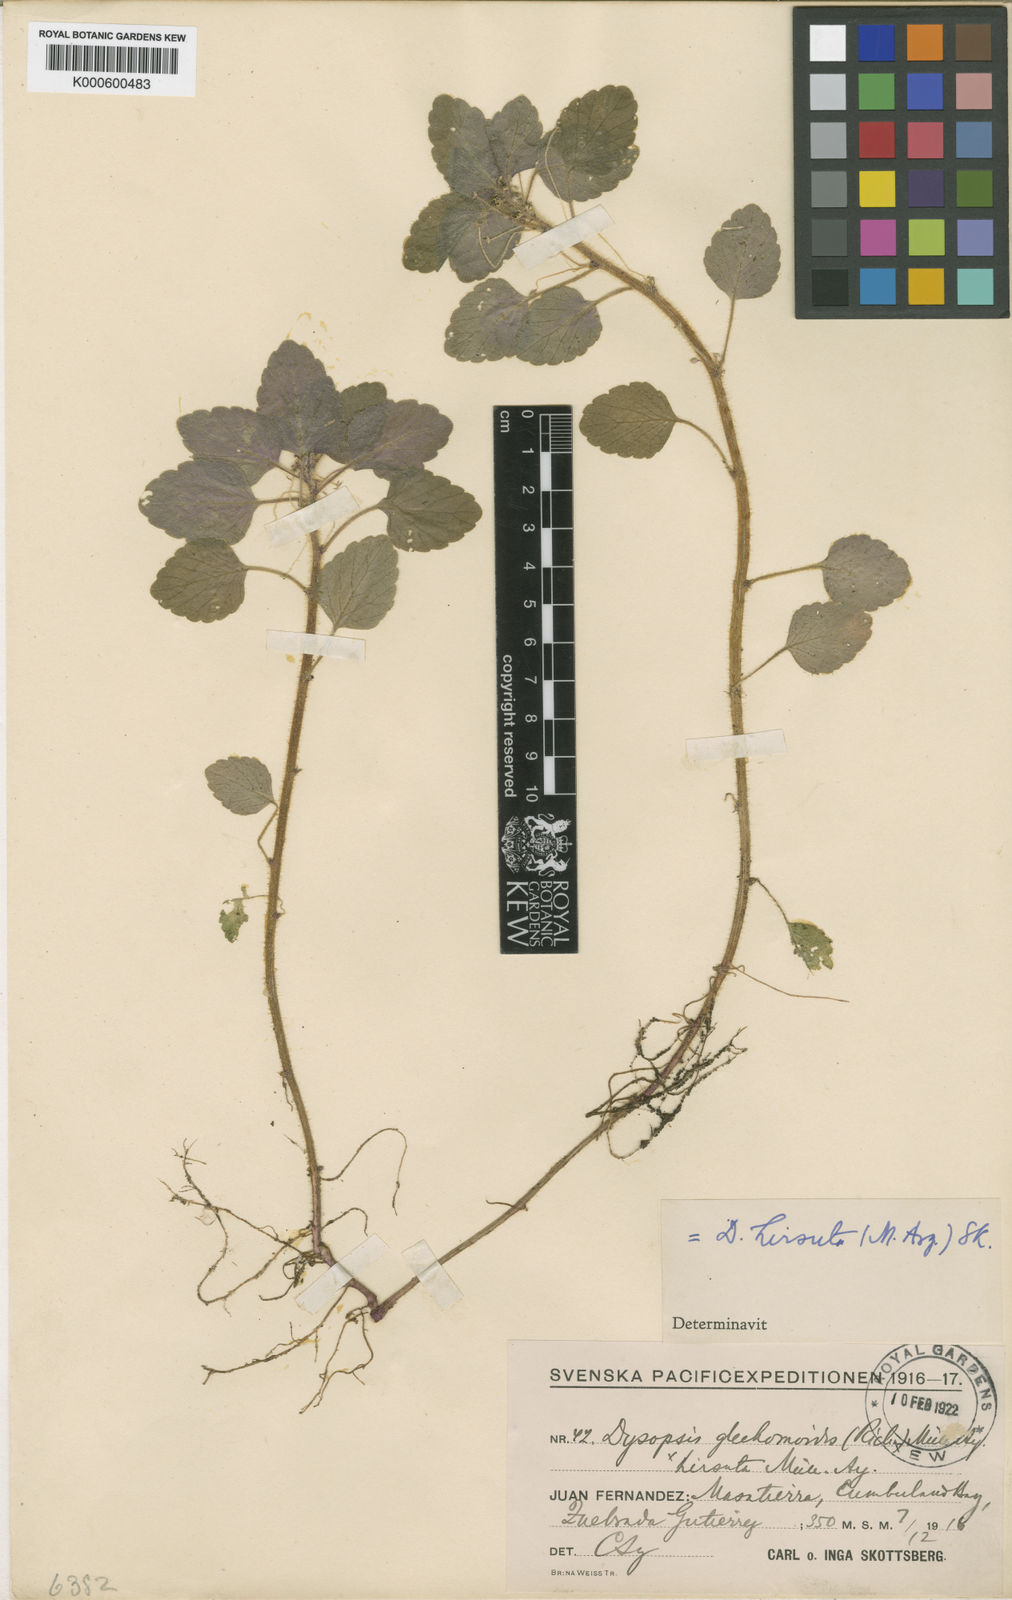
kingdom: Plantae
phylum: Tracheophyta
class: Magnoliopsida
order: Malpighiales
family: Euphorbiaceae
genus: Dysopsis
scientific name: Dysopsis
